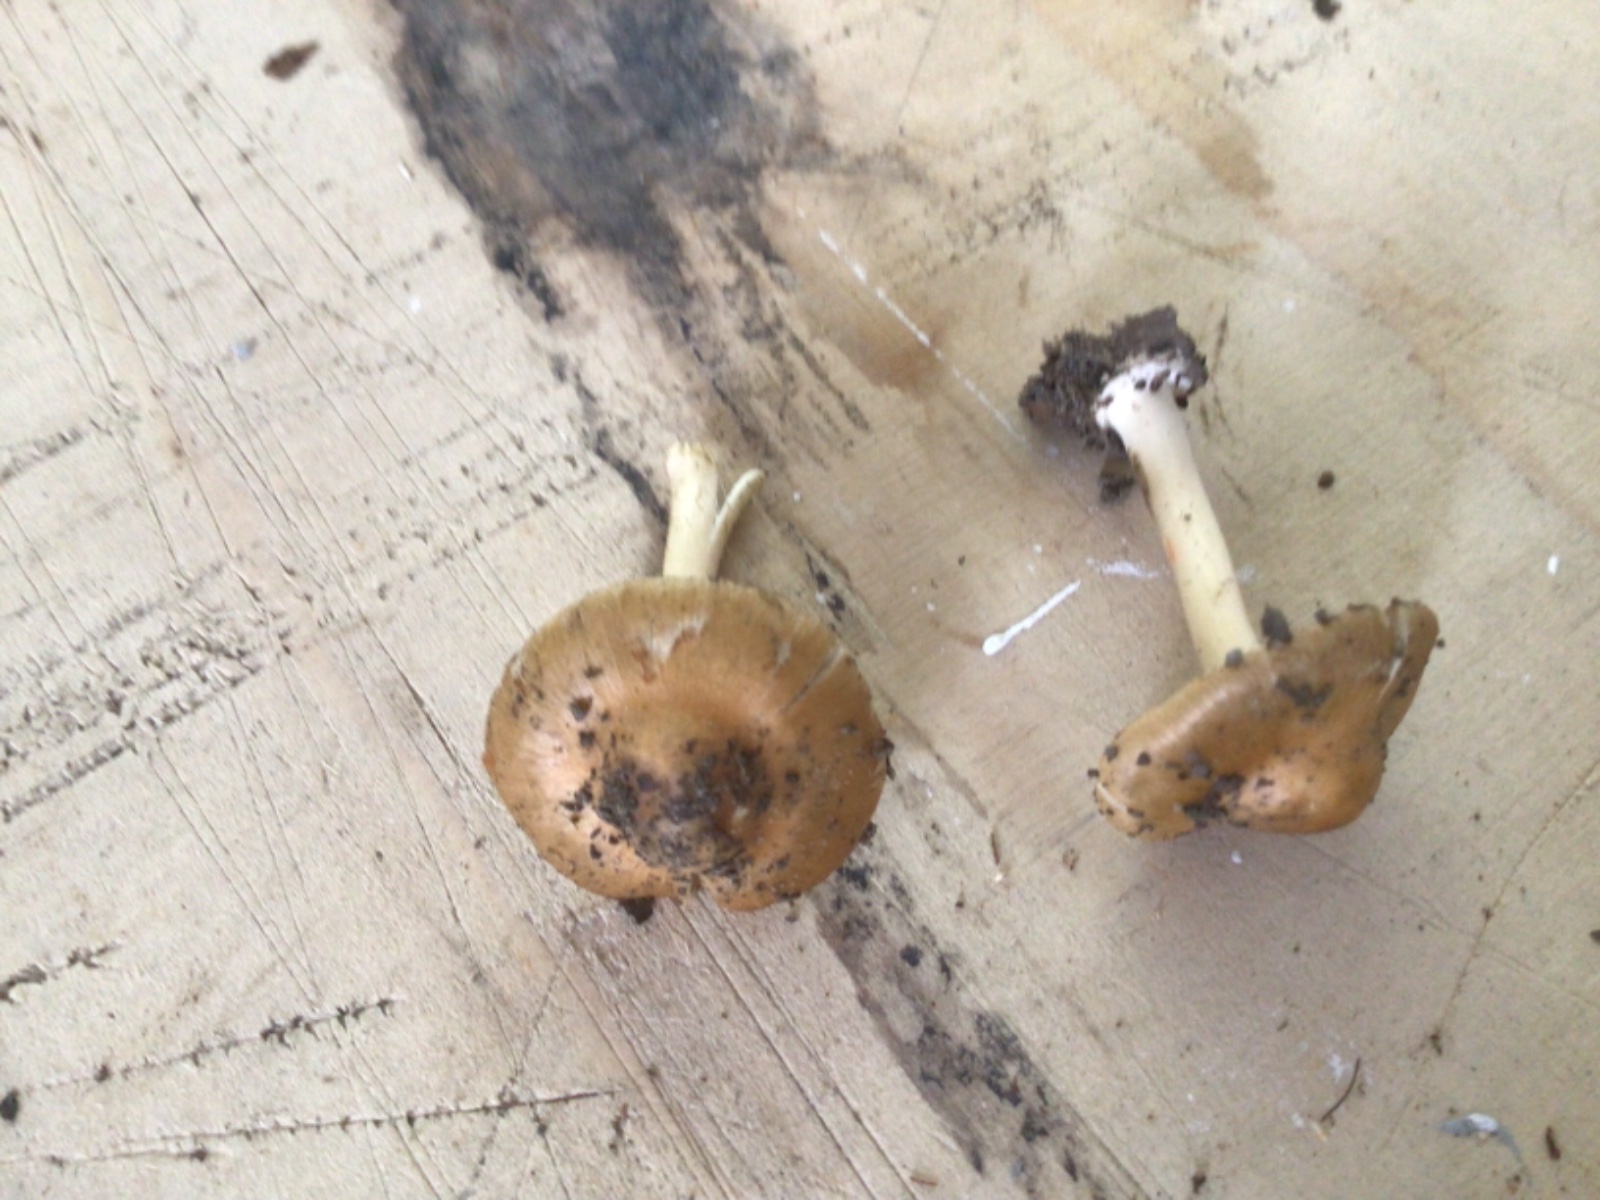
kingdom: Fungi
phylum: Basidiomycota
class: Agaricomycetes
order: Agaricales
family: Inocybaceae
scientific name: Inocybaceae
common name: trævlhatfamilien
